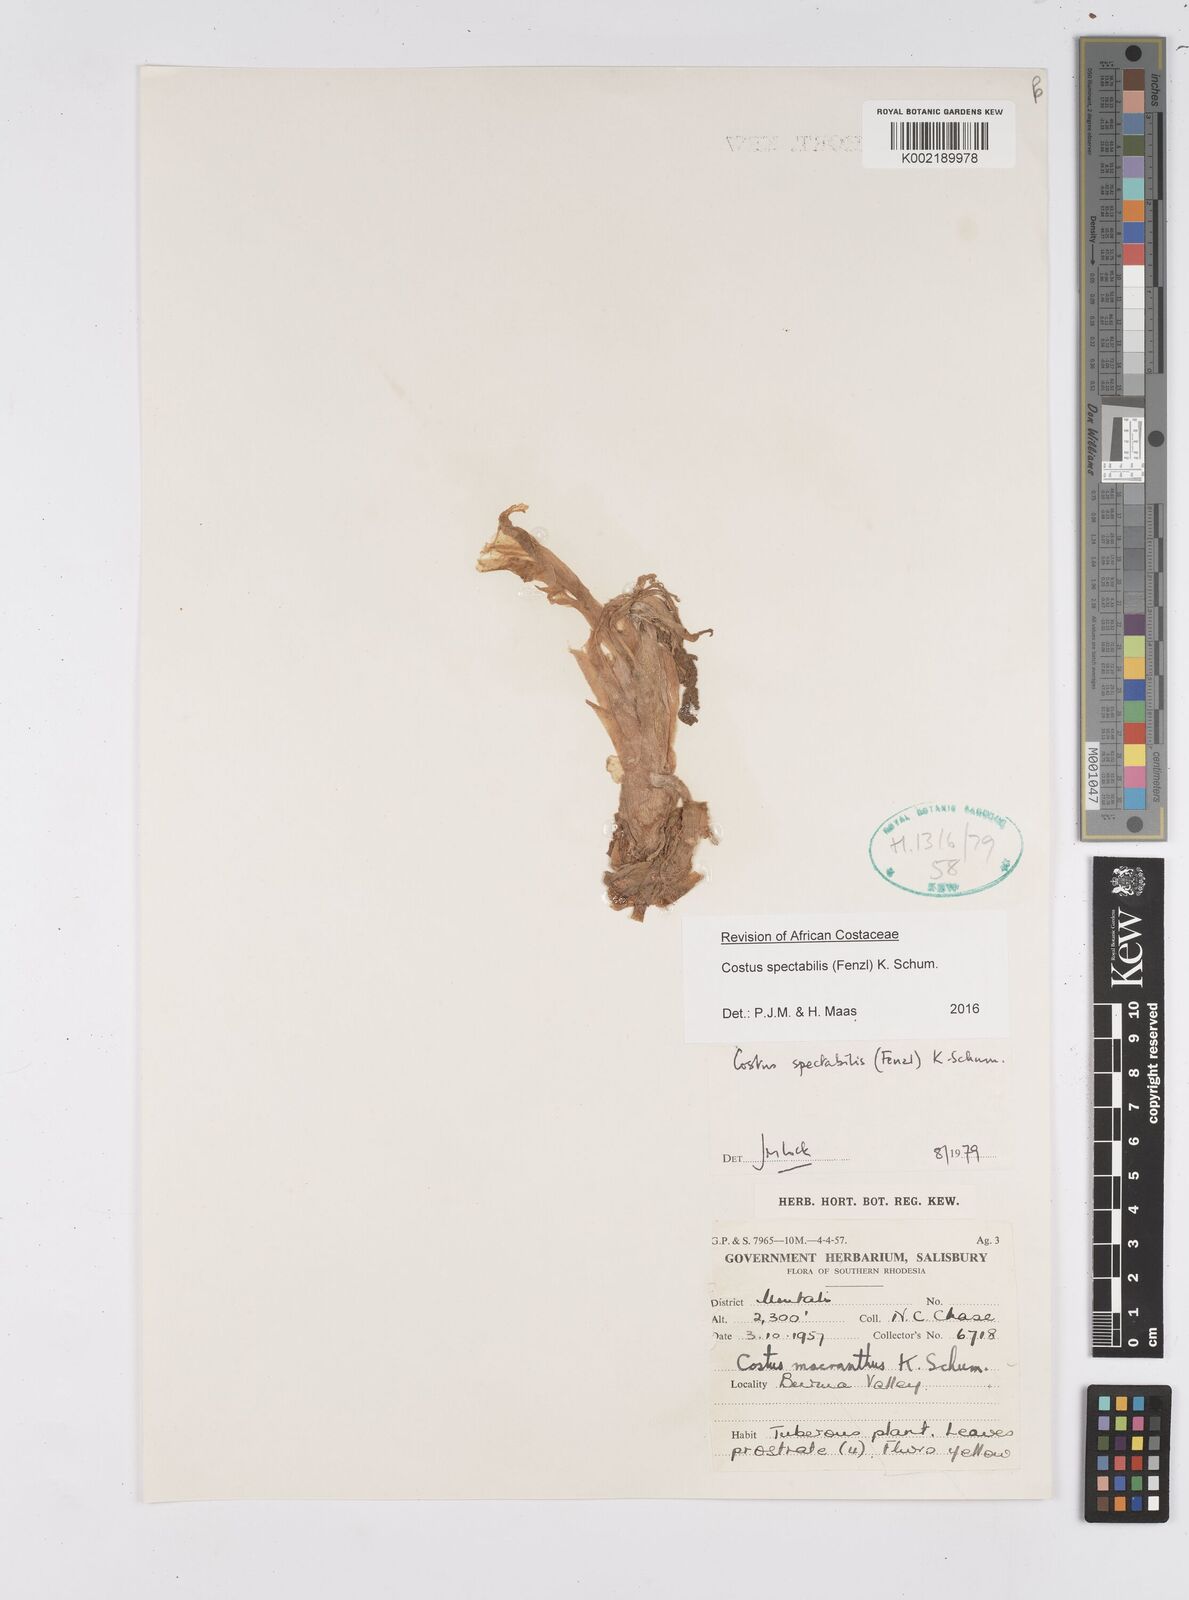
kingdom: Plantae
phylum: Tracheophyta
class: Liliopsida
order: Zingiberales
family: Costaceae
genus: Costus
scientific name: Costus spectabilis
